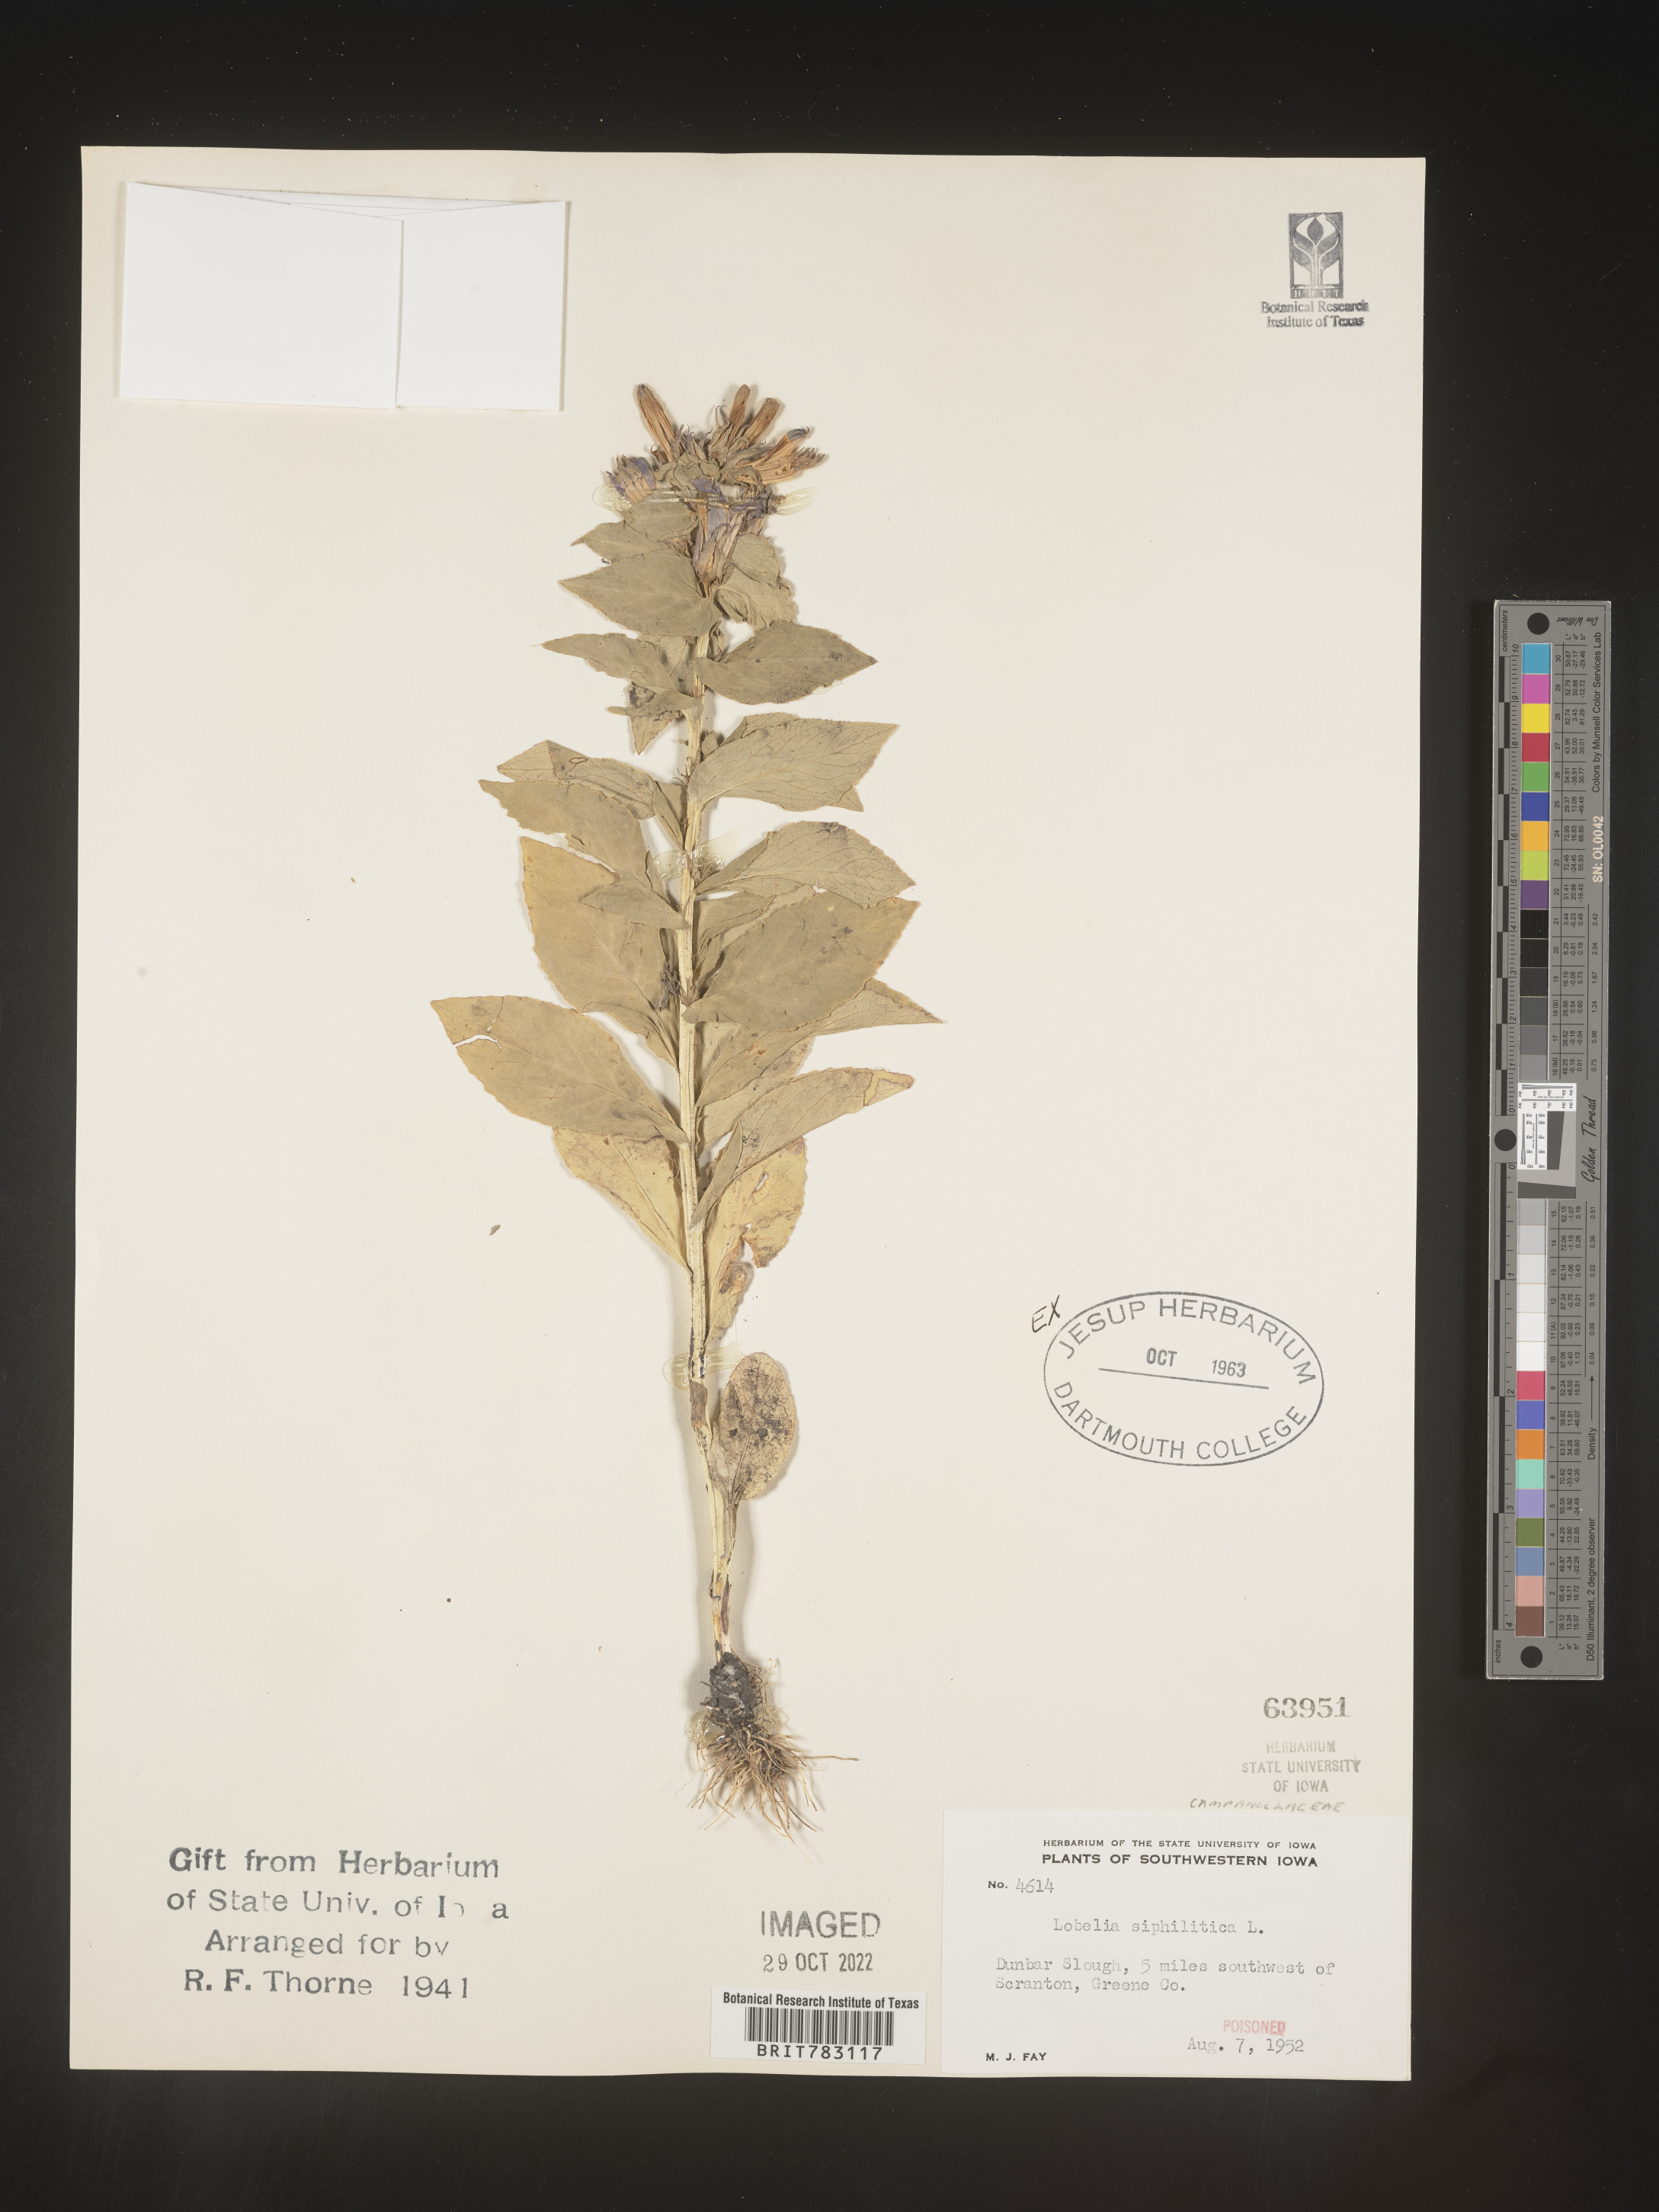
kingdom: Plantae
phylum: Tracheophyta
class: Magnoliopsida
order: Asterales
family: Campanulaceae
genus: Lobelia
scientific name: Lobelia siphilitica
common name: Great lobelia
